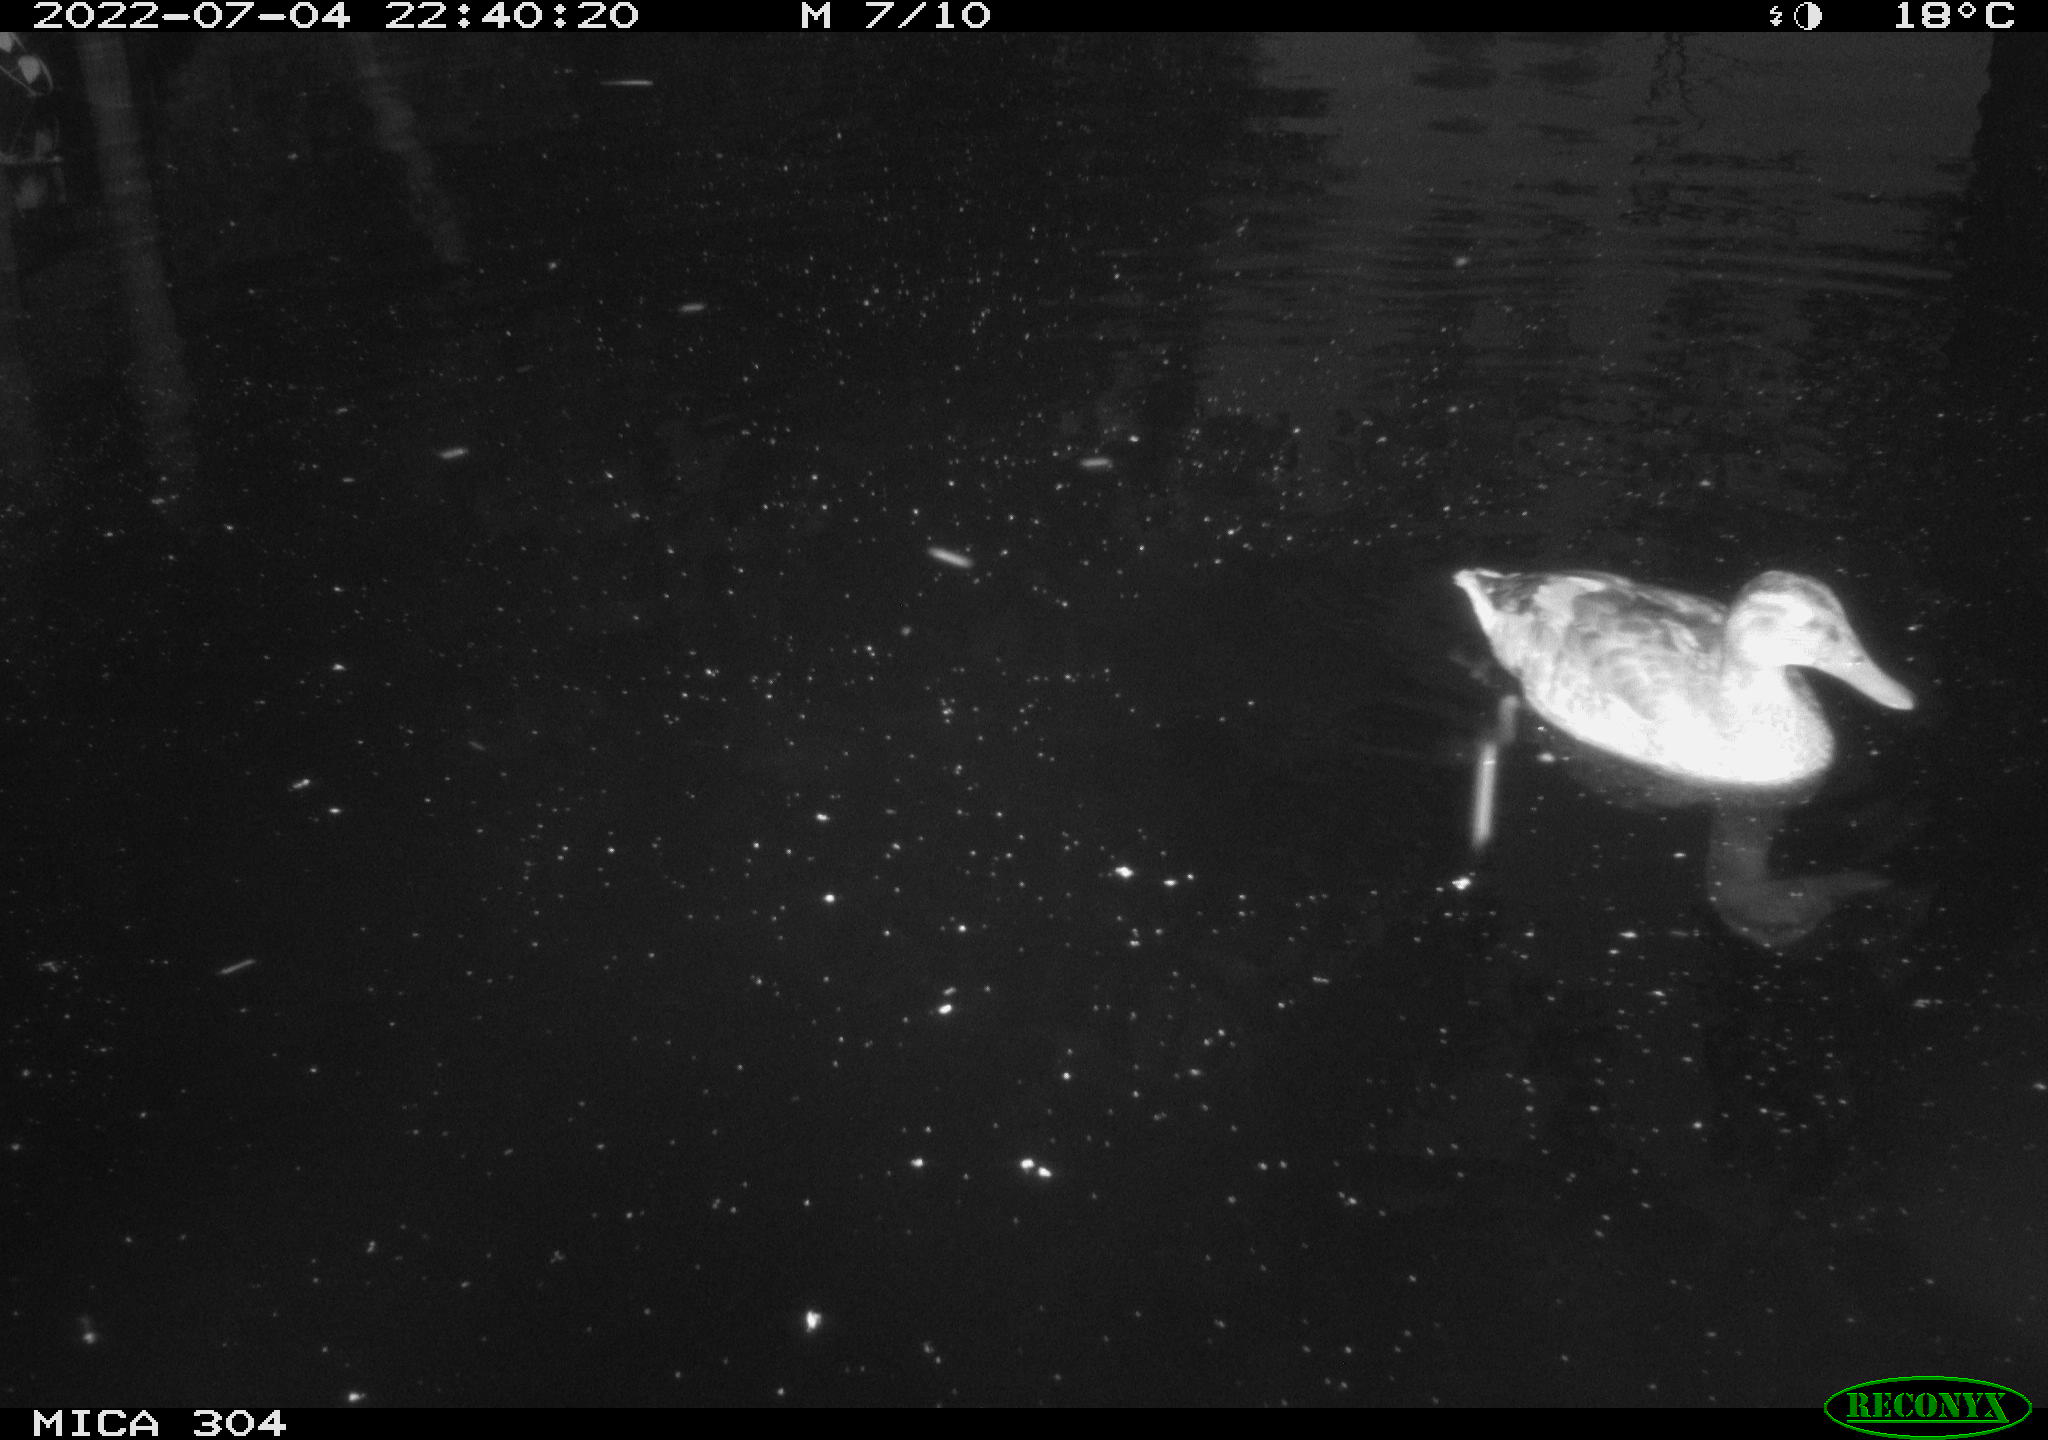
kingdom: Animalia
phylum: Chordata
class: Aves
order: Anseriformes
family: Anatidae
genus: Mareca
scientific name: Mareca strepera
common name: Gadwall
